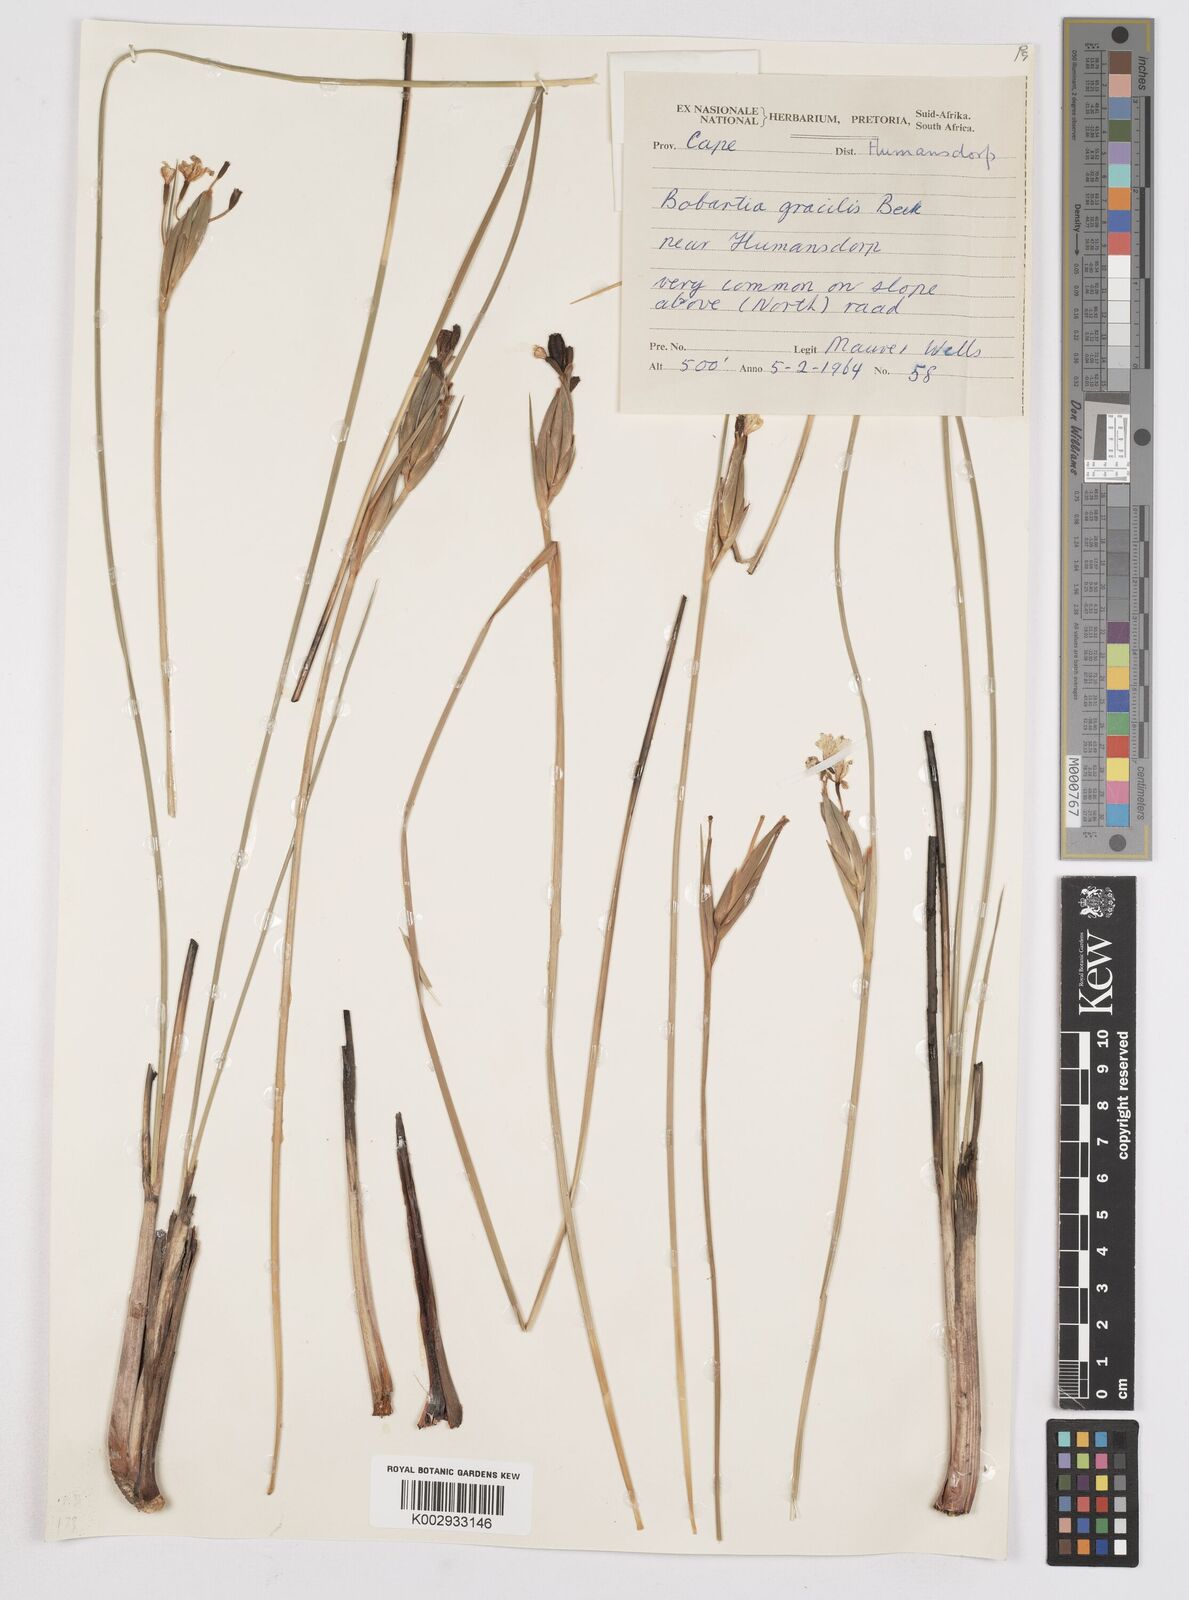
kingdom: Plantae
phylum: Tracheophyta
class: Liliopsida
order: Asparagales
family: Iridaceae
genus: Bobartia
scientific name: Bobartia gracilis
